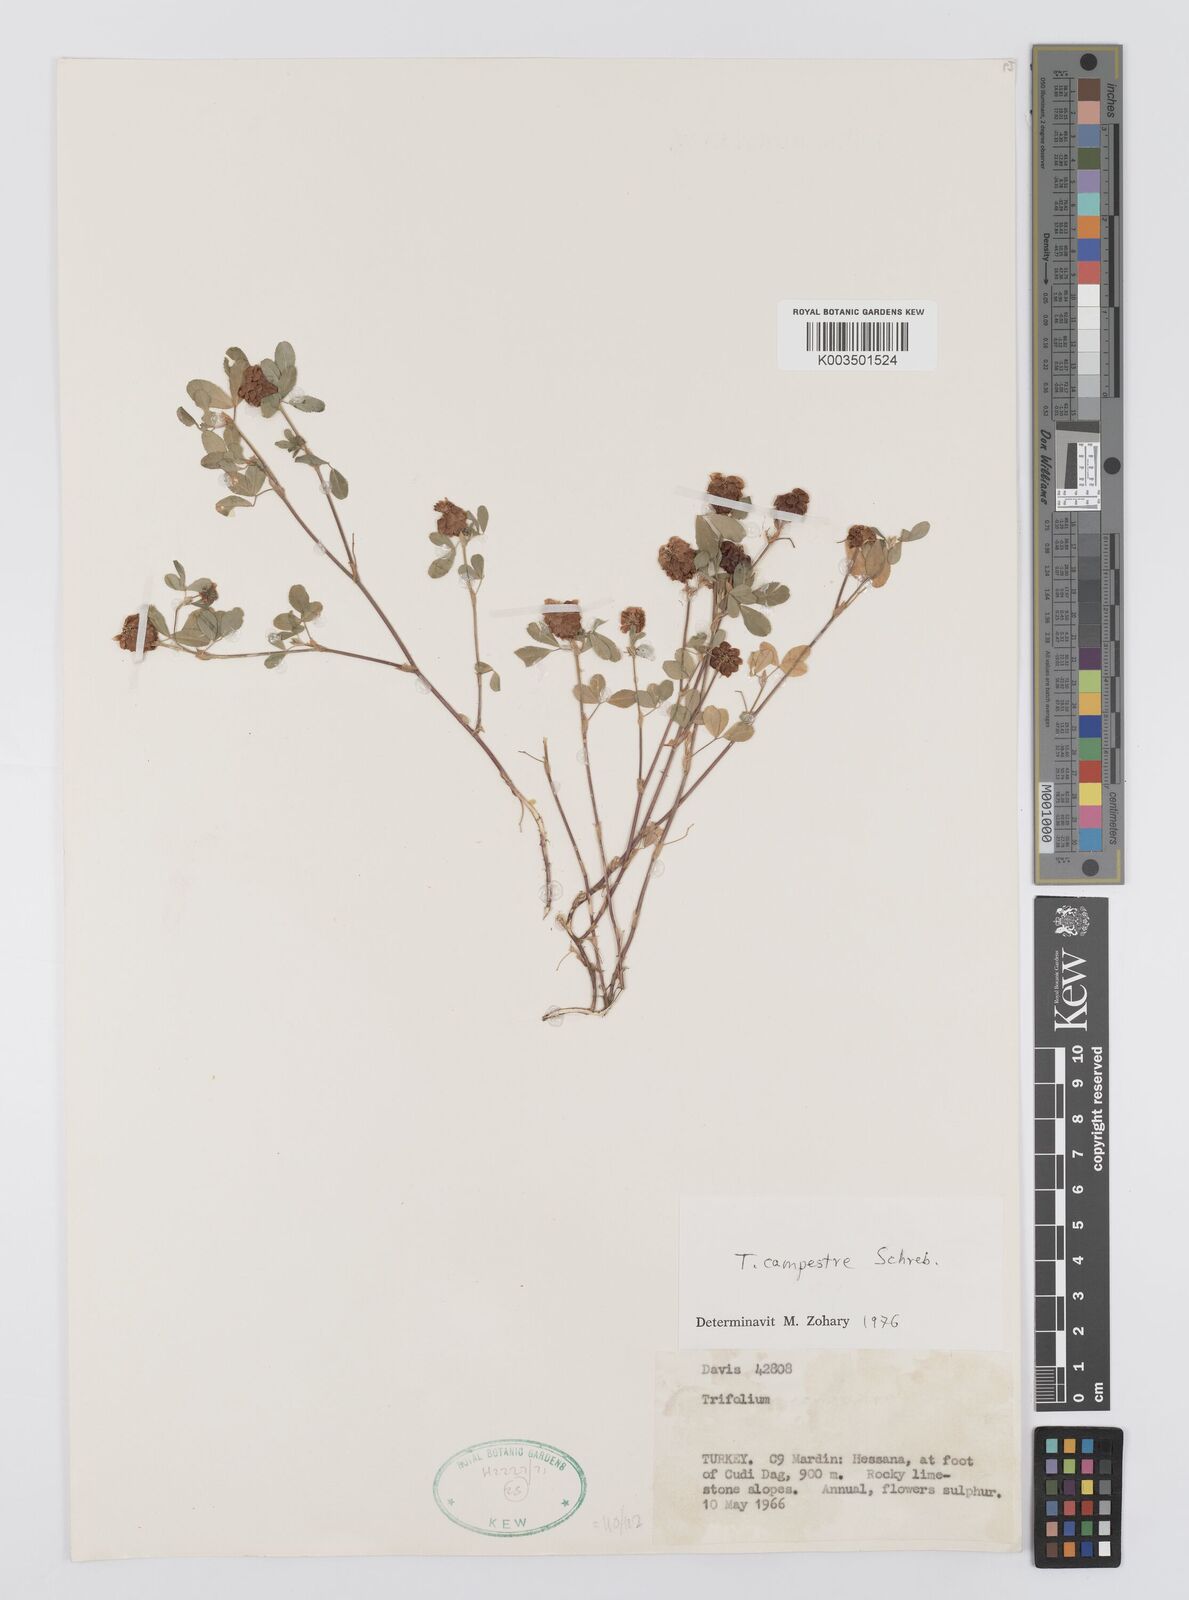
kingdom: Plantae
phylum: Tracheophyta
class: Magnoliopsida
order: Fabales
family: Fabaceae
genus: Trifolium
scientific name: Trifolium campestre
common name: Field clover
